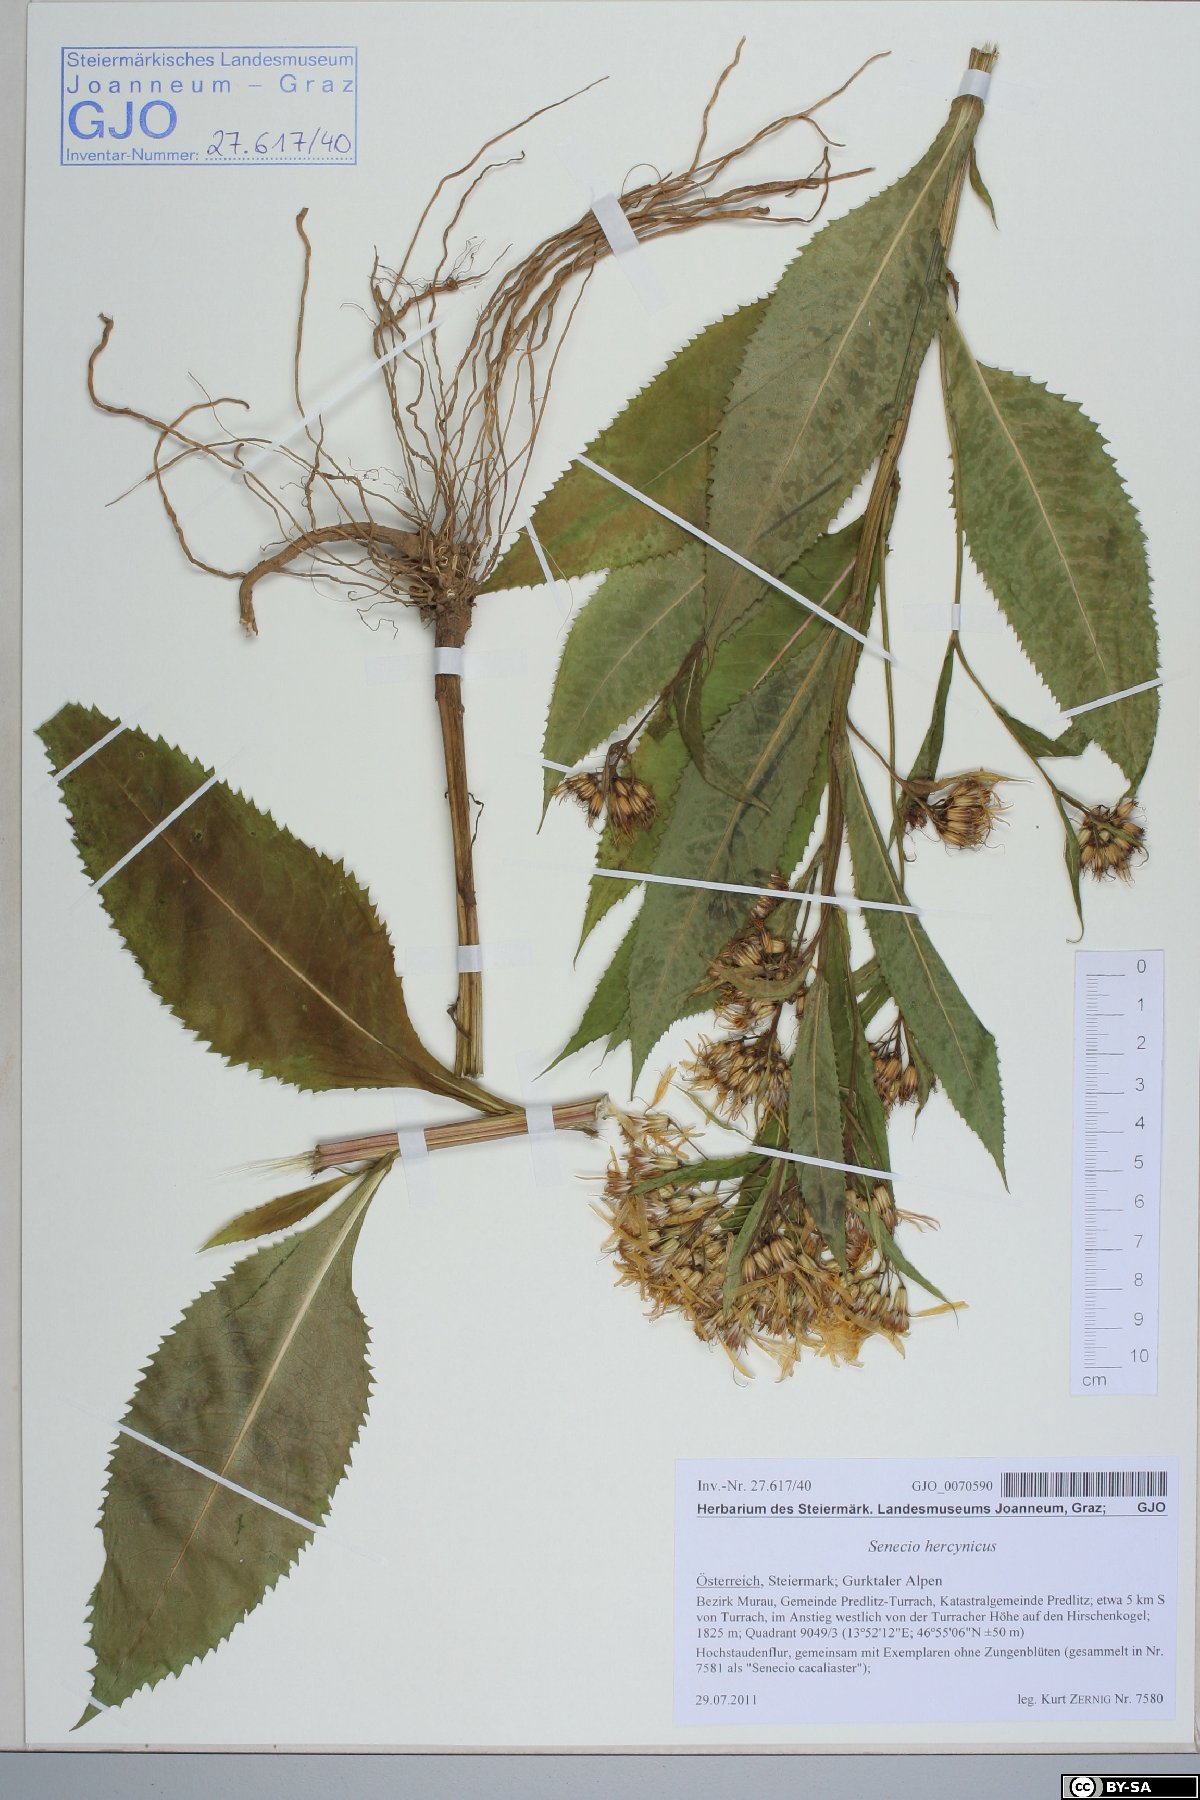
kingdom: Plantae
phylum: Tracheophyta
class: Magnoliopsida
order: Asterales
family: Asteraceae
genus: Senecio
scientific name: Senecio hercynicus
